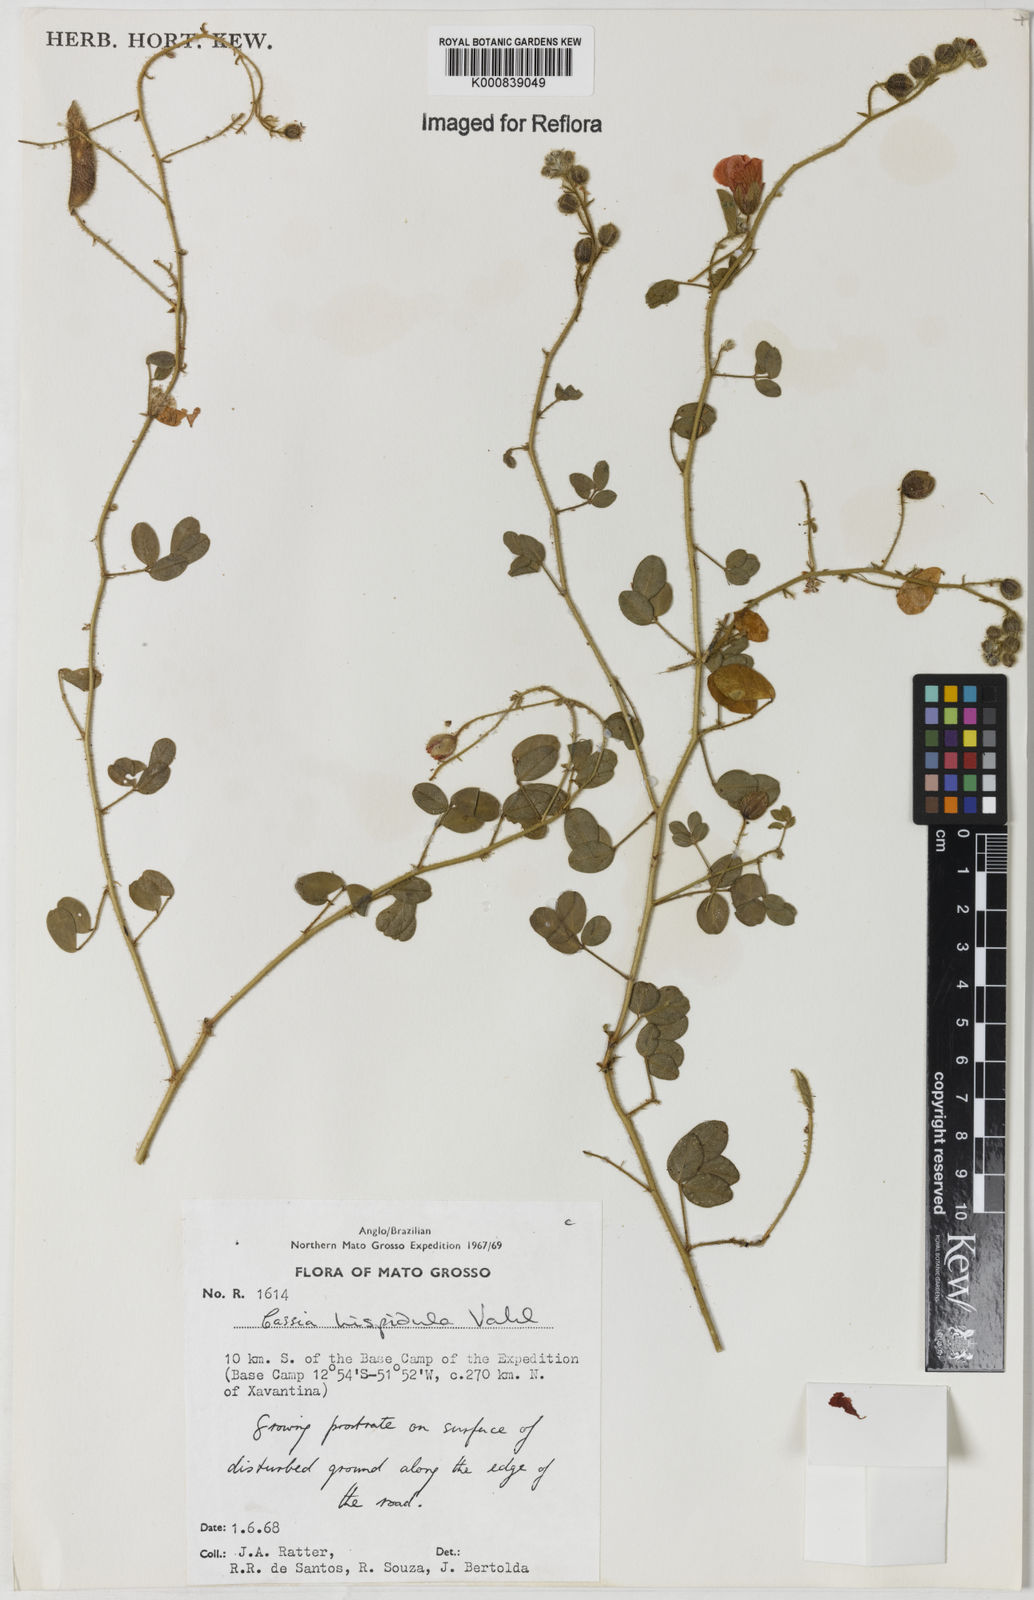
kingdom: Plantae
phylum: Tracheophyta
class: Magnoliopsida
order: Fabales
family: Fabaceae
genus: Chamaecrista
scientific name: Chamaecrista hispidula
